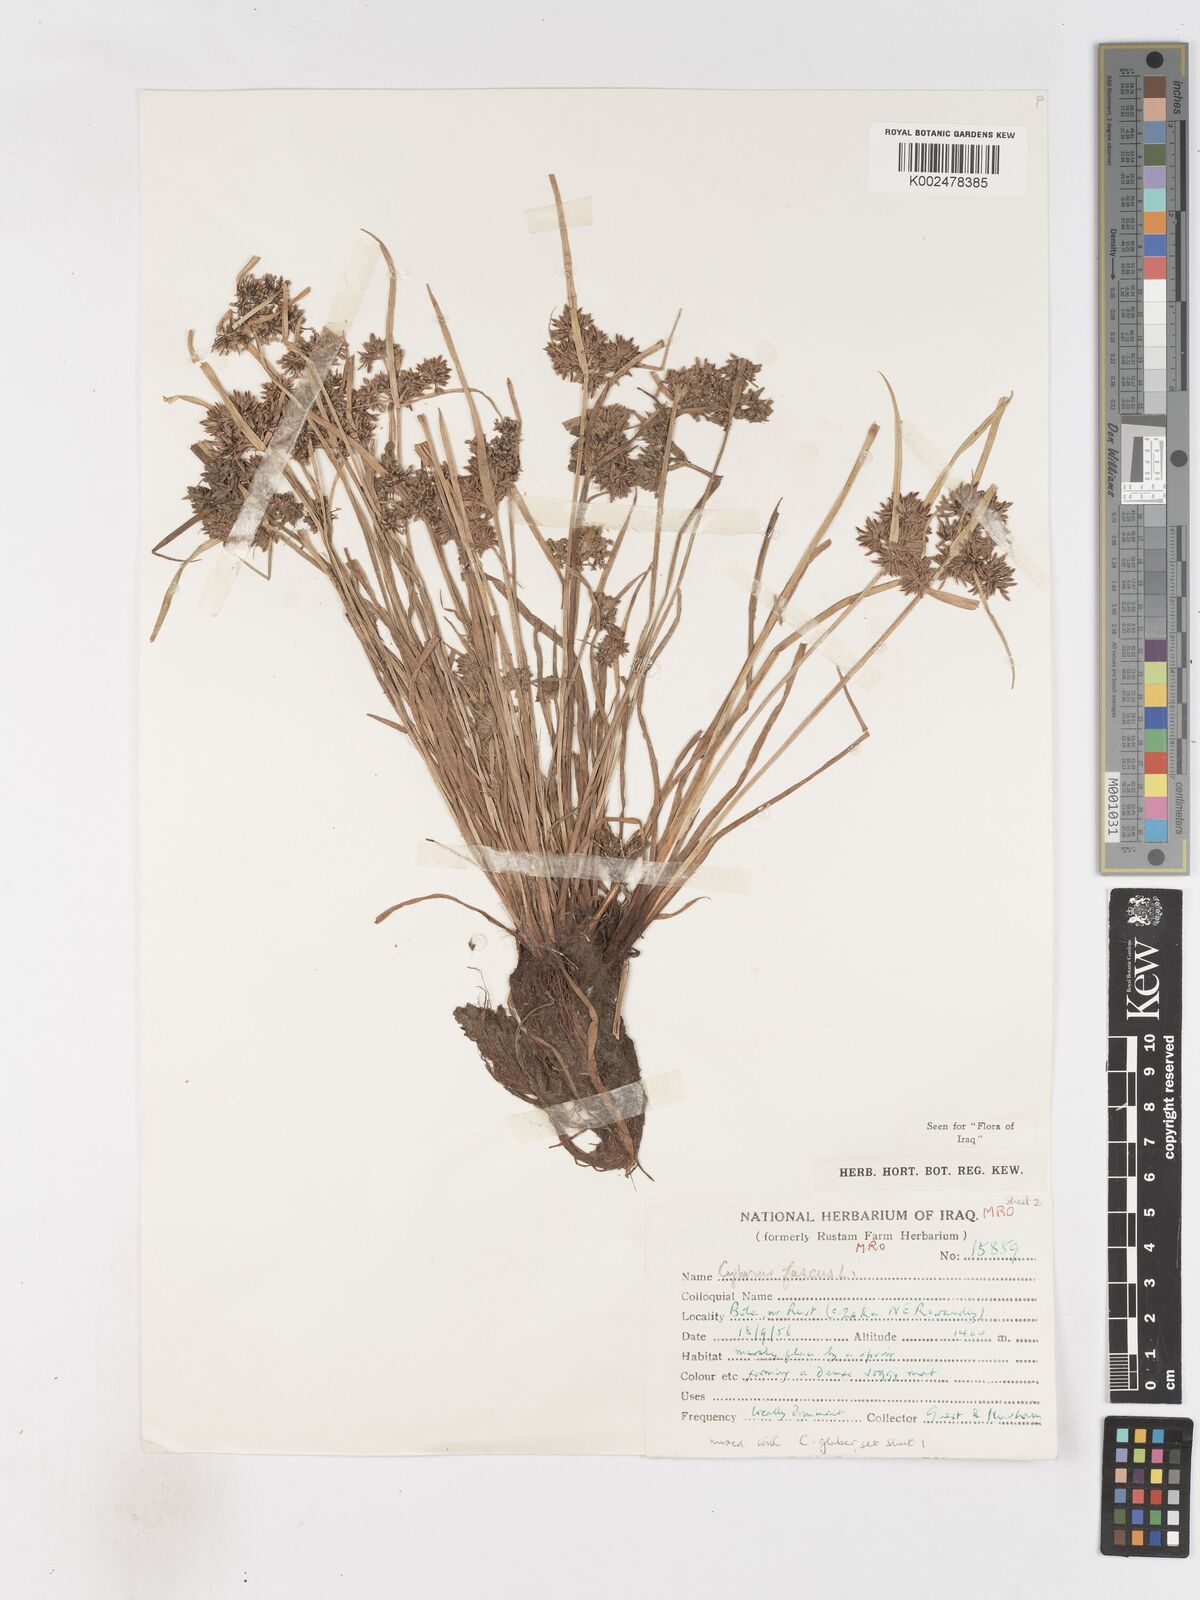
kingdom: Plantae
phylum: Tracheophyta
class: Liliopsida
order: Poales
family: Cyperaceae
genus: Cyperus
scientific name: Cyperus fuscus
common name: Brown galingale
